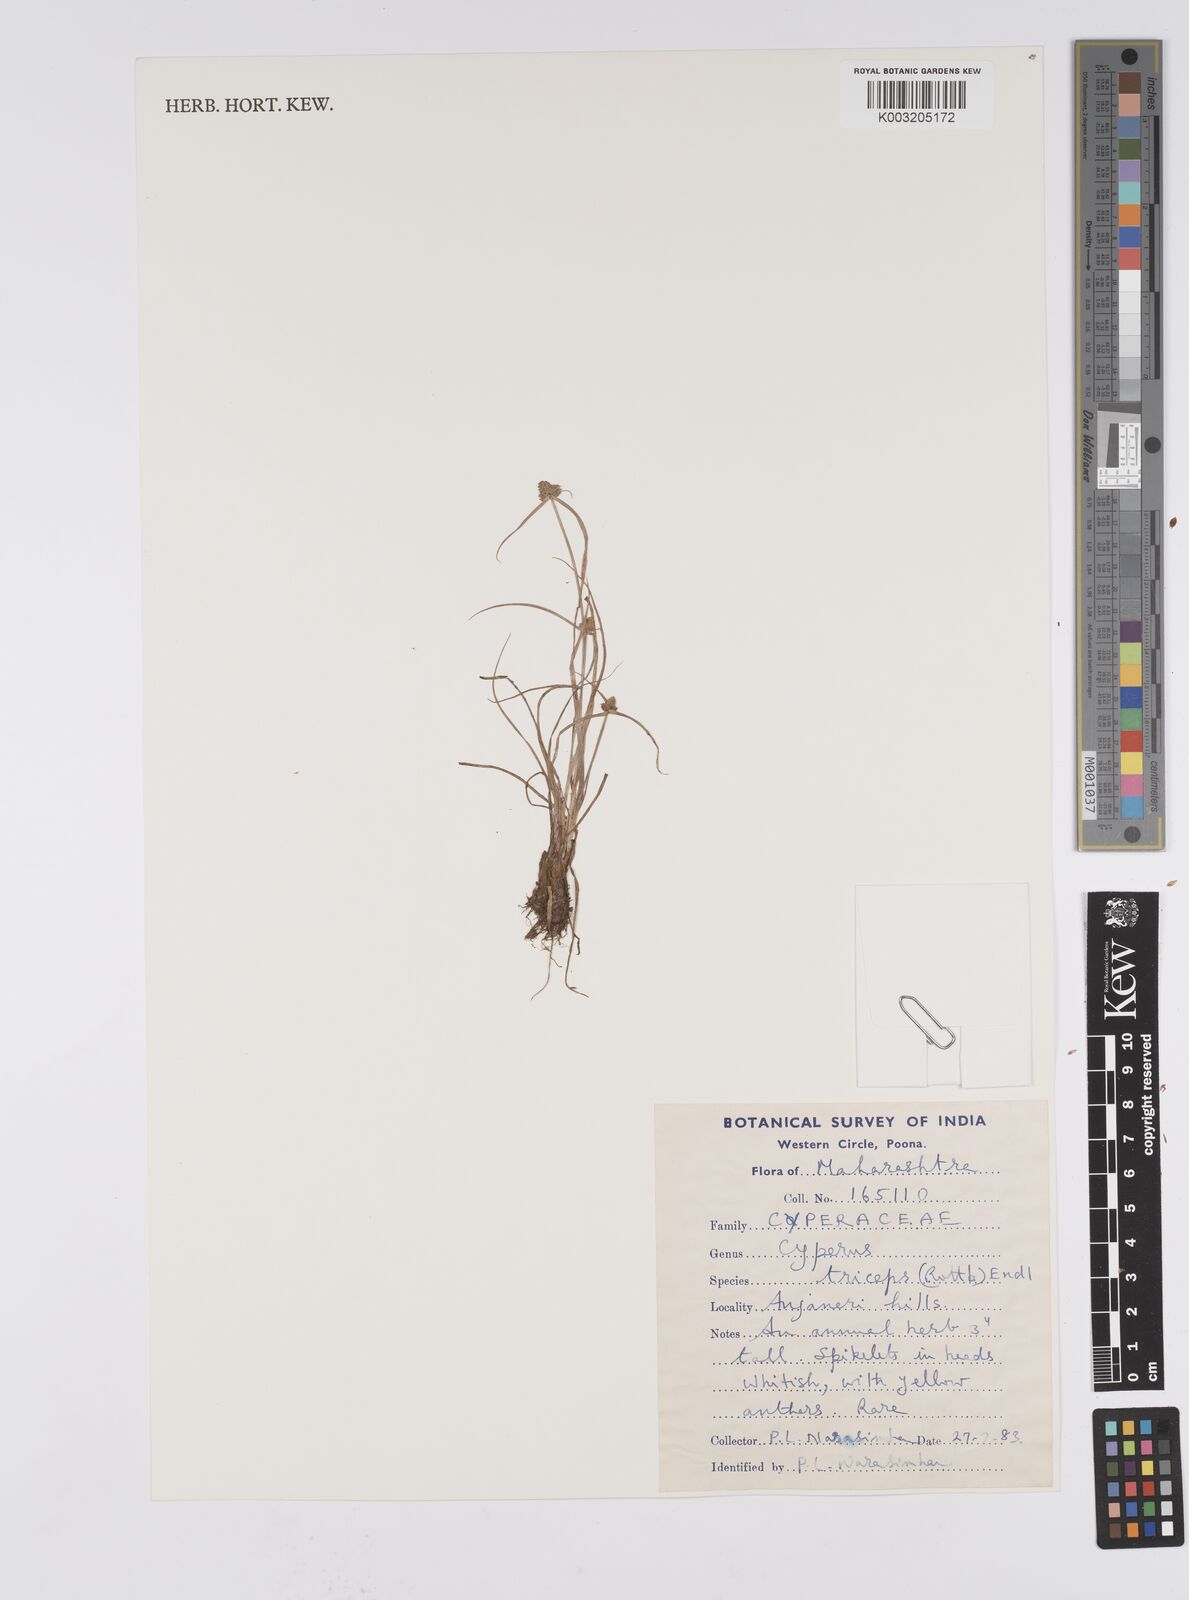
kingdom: Plantae
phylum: Tracheophyta
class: Liliopsida
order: Poales
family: Cyperaceae
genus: Cyperus
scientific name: Cyperus
